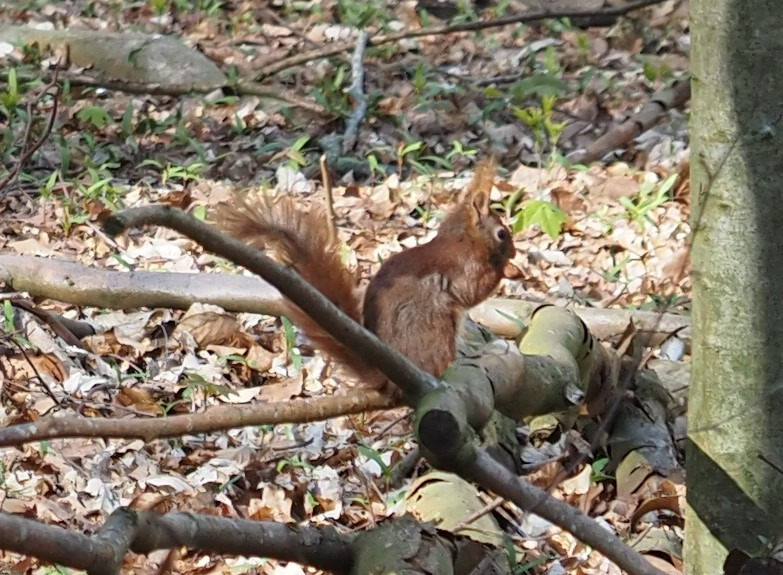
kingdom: Animalia
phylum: Chordata
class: Mammalia
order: Rodentia
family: Sciuridae
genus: Sciurus
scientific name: Sciurus vulgaris
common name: Egern
